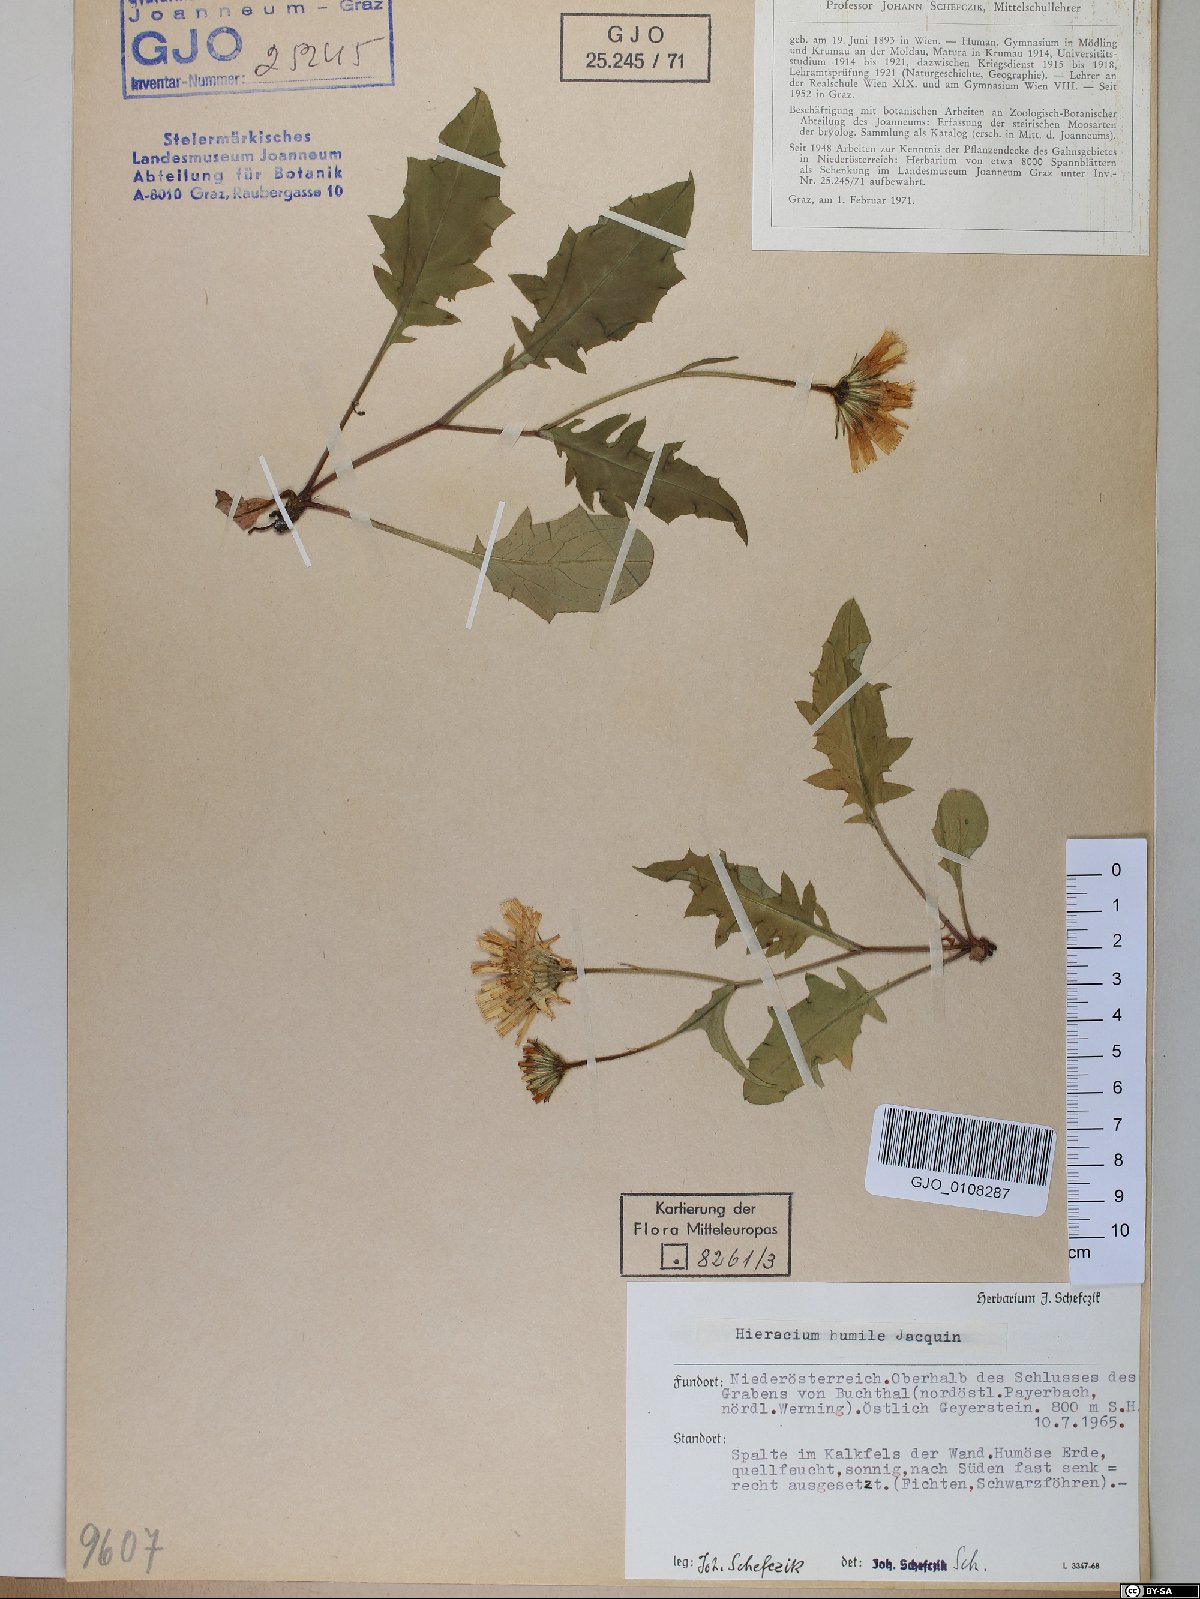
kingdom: Plantae
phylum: Tracheophyta
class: Magnoliopsida
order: Asterales
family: Asteraceae
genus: Hieracium
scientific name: Hieracium humile
